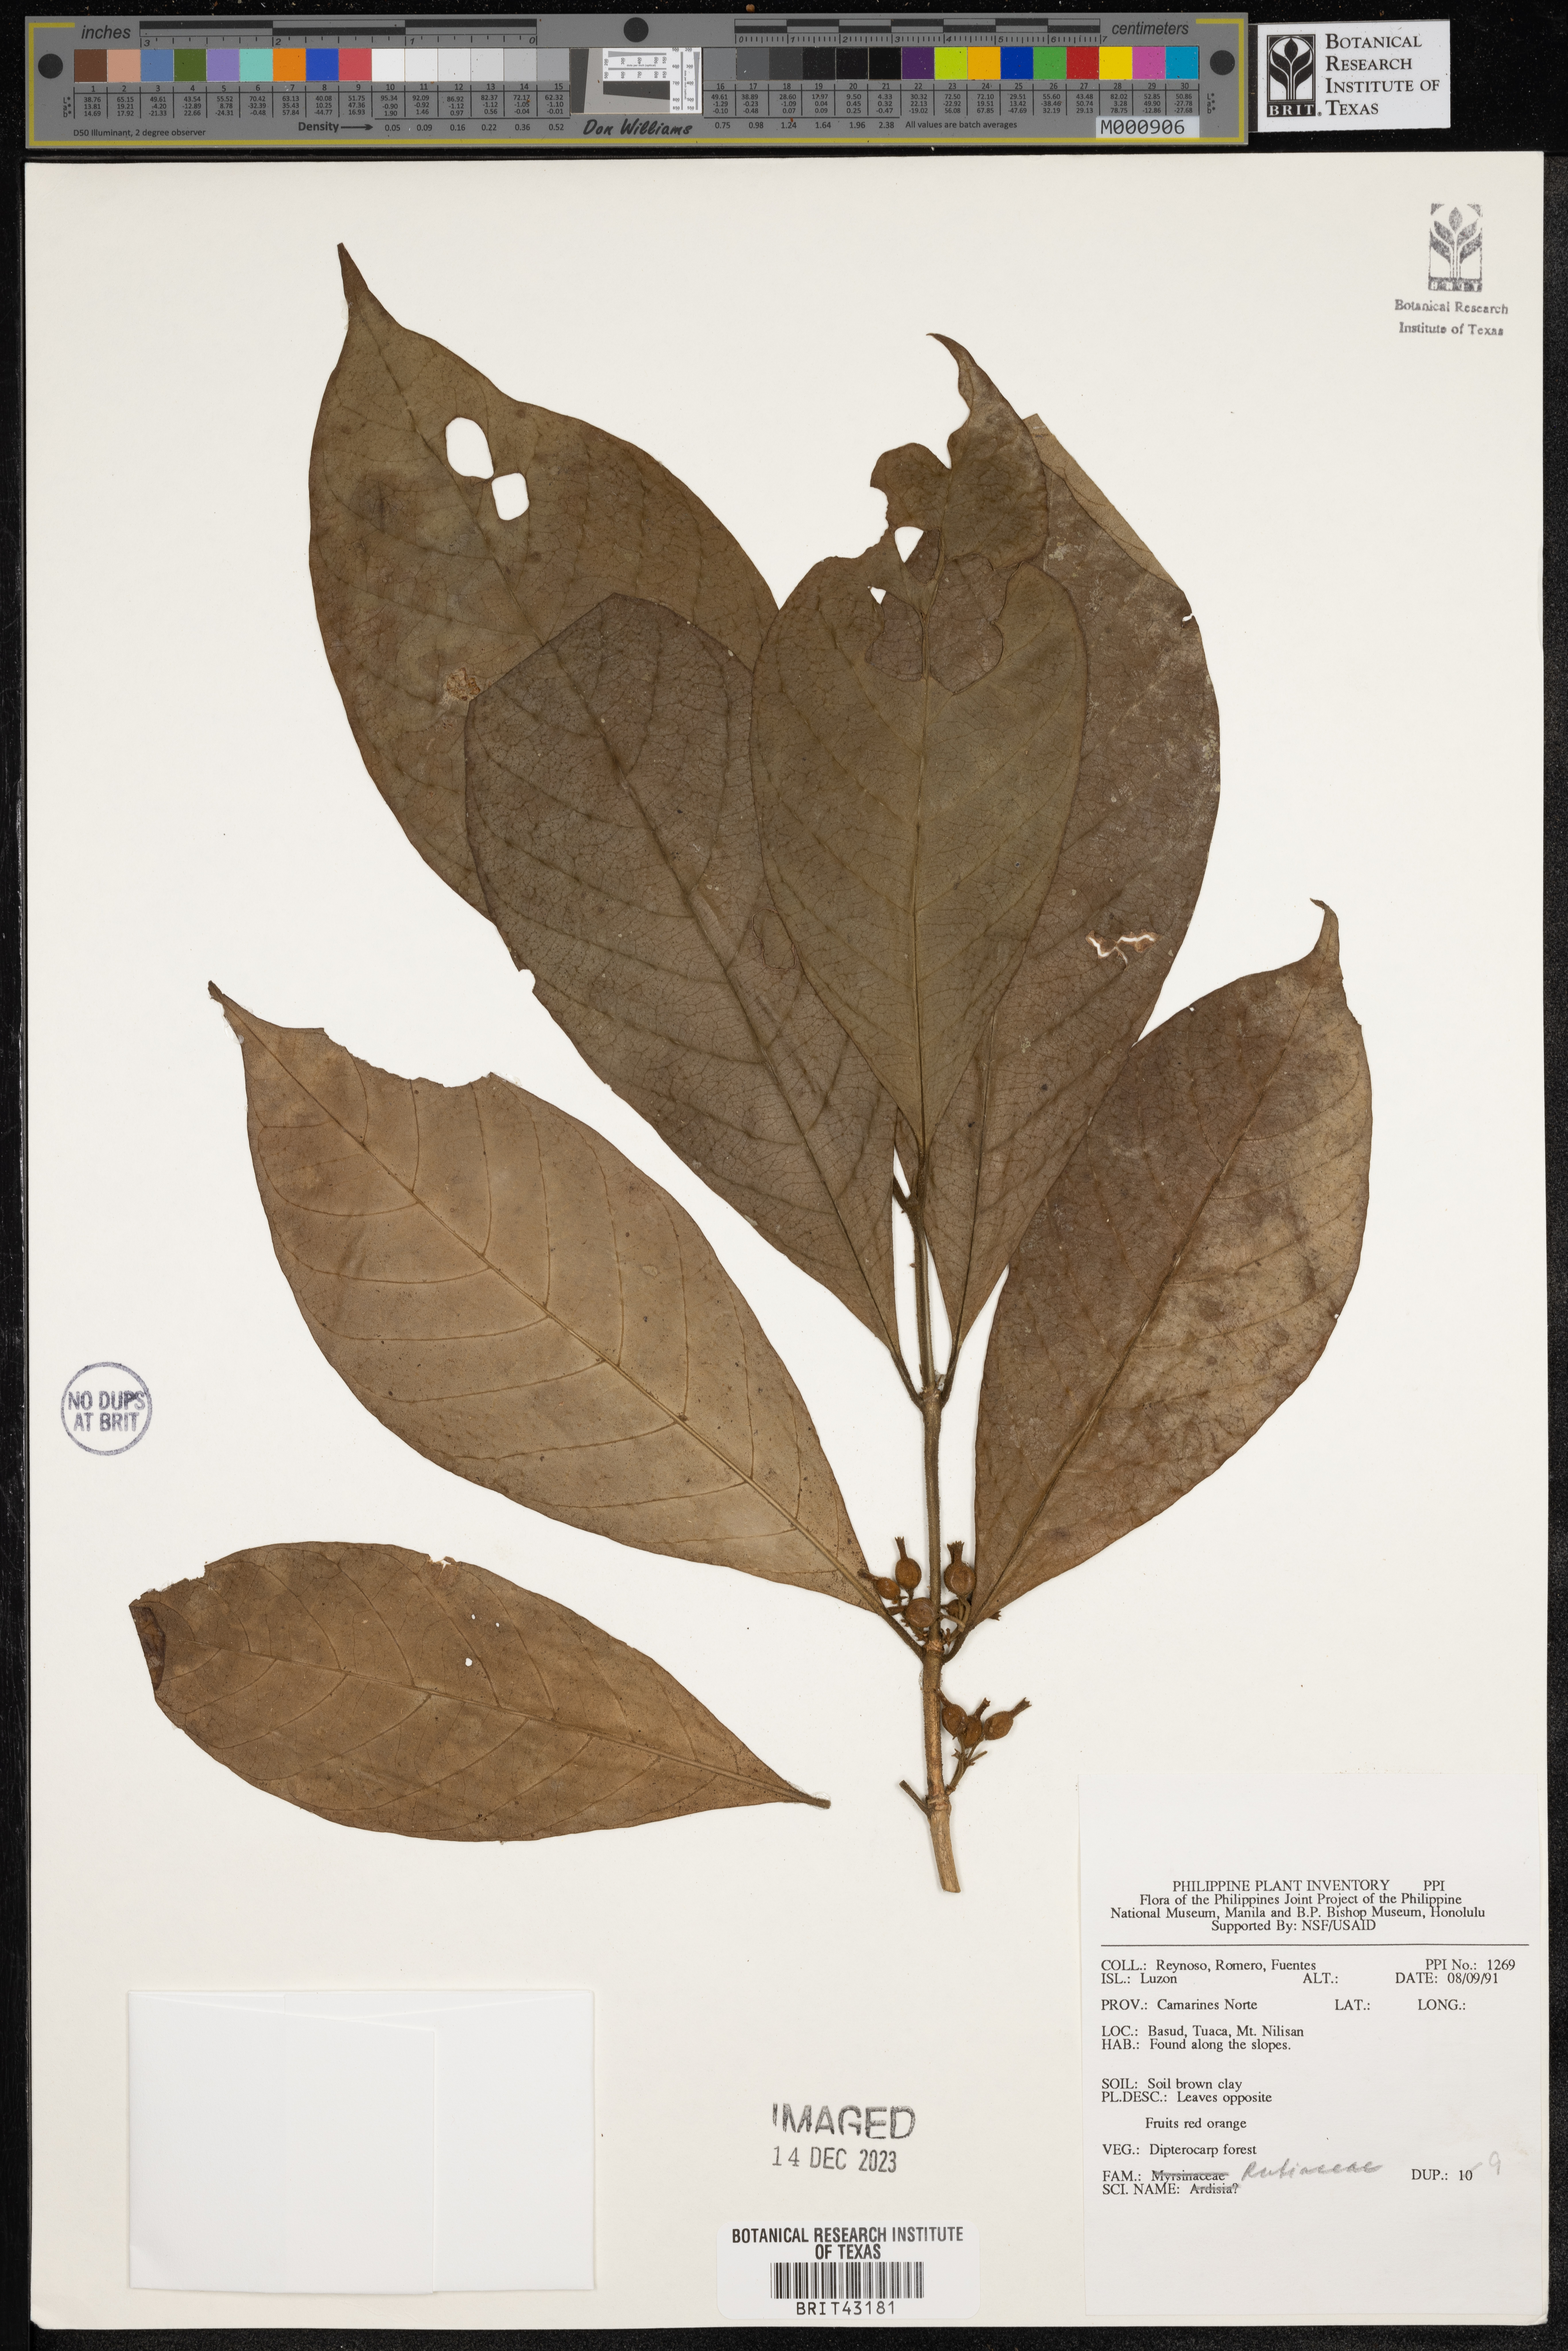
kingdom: Plantae
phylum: Tracheophyta
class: Magnoliopsida
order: Gentianales
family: Rubiaceae
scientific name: Rubiaceae
